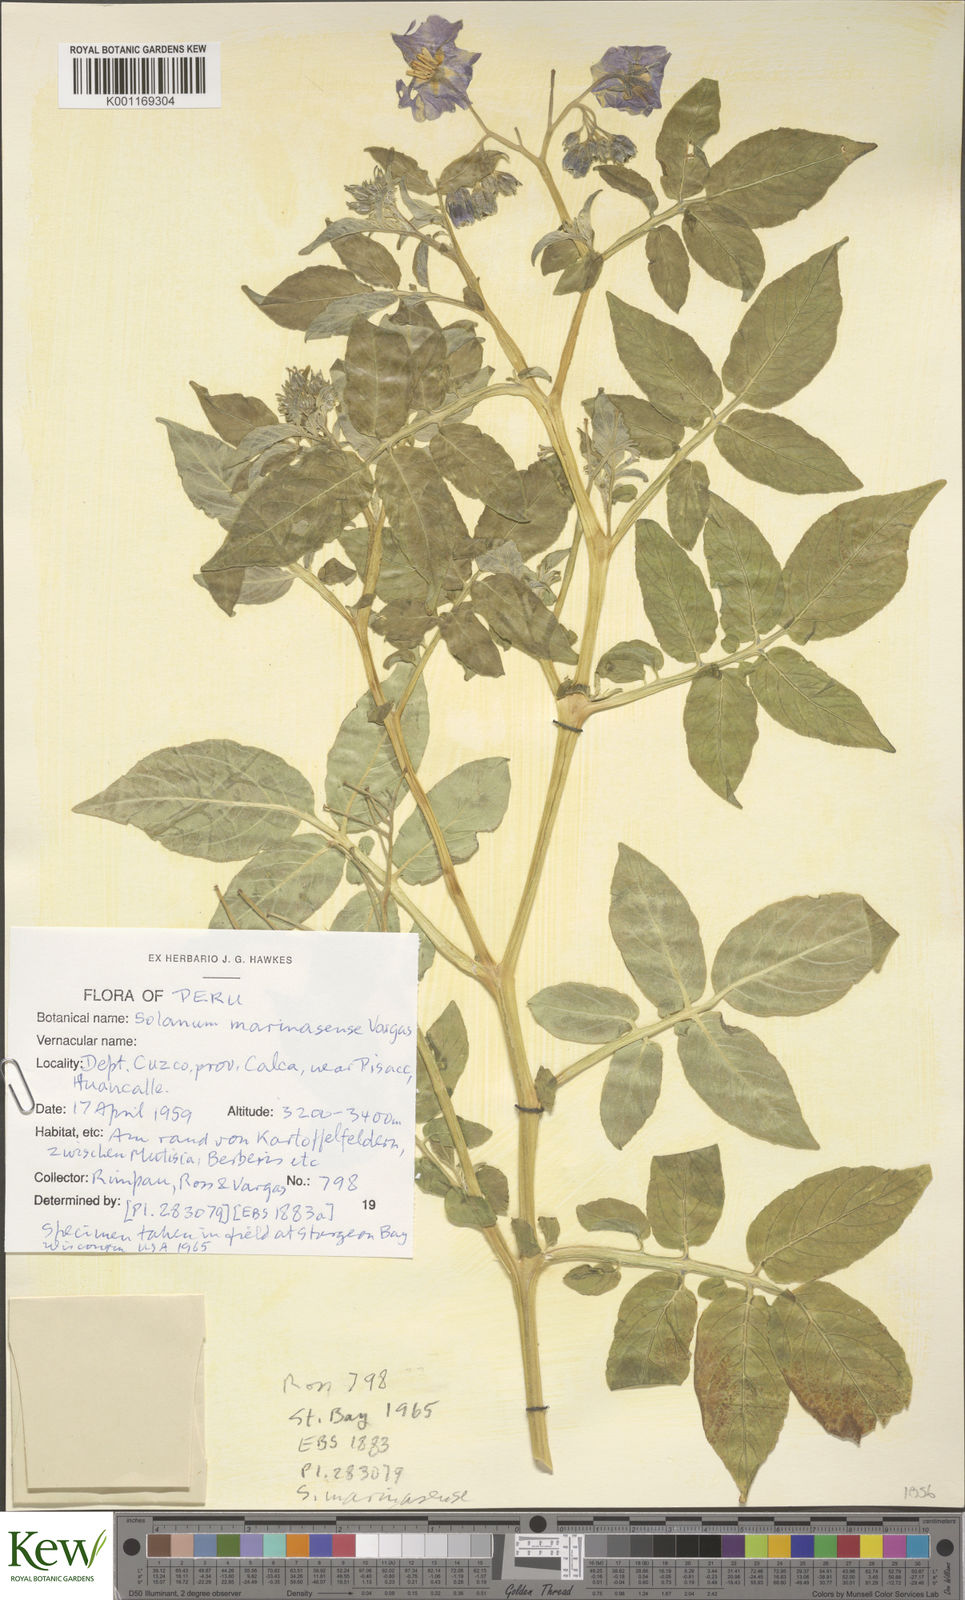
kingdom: Plantae
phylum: Tracheophyta
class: Magnoliopsida
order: Solanales
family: Solanaceae
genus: Solanum
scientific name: Solanum candolleanum
